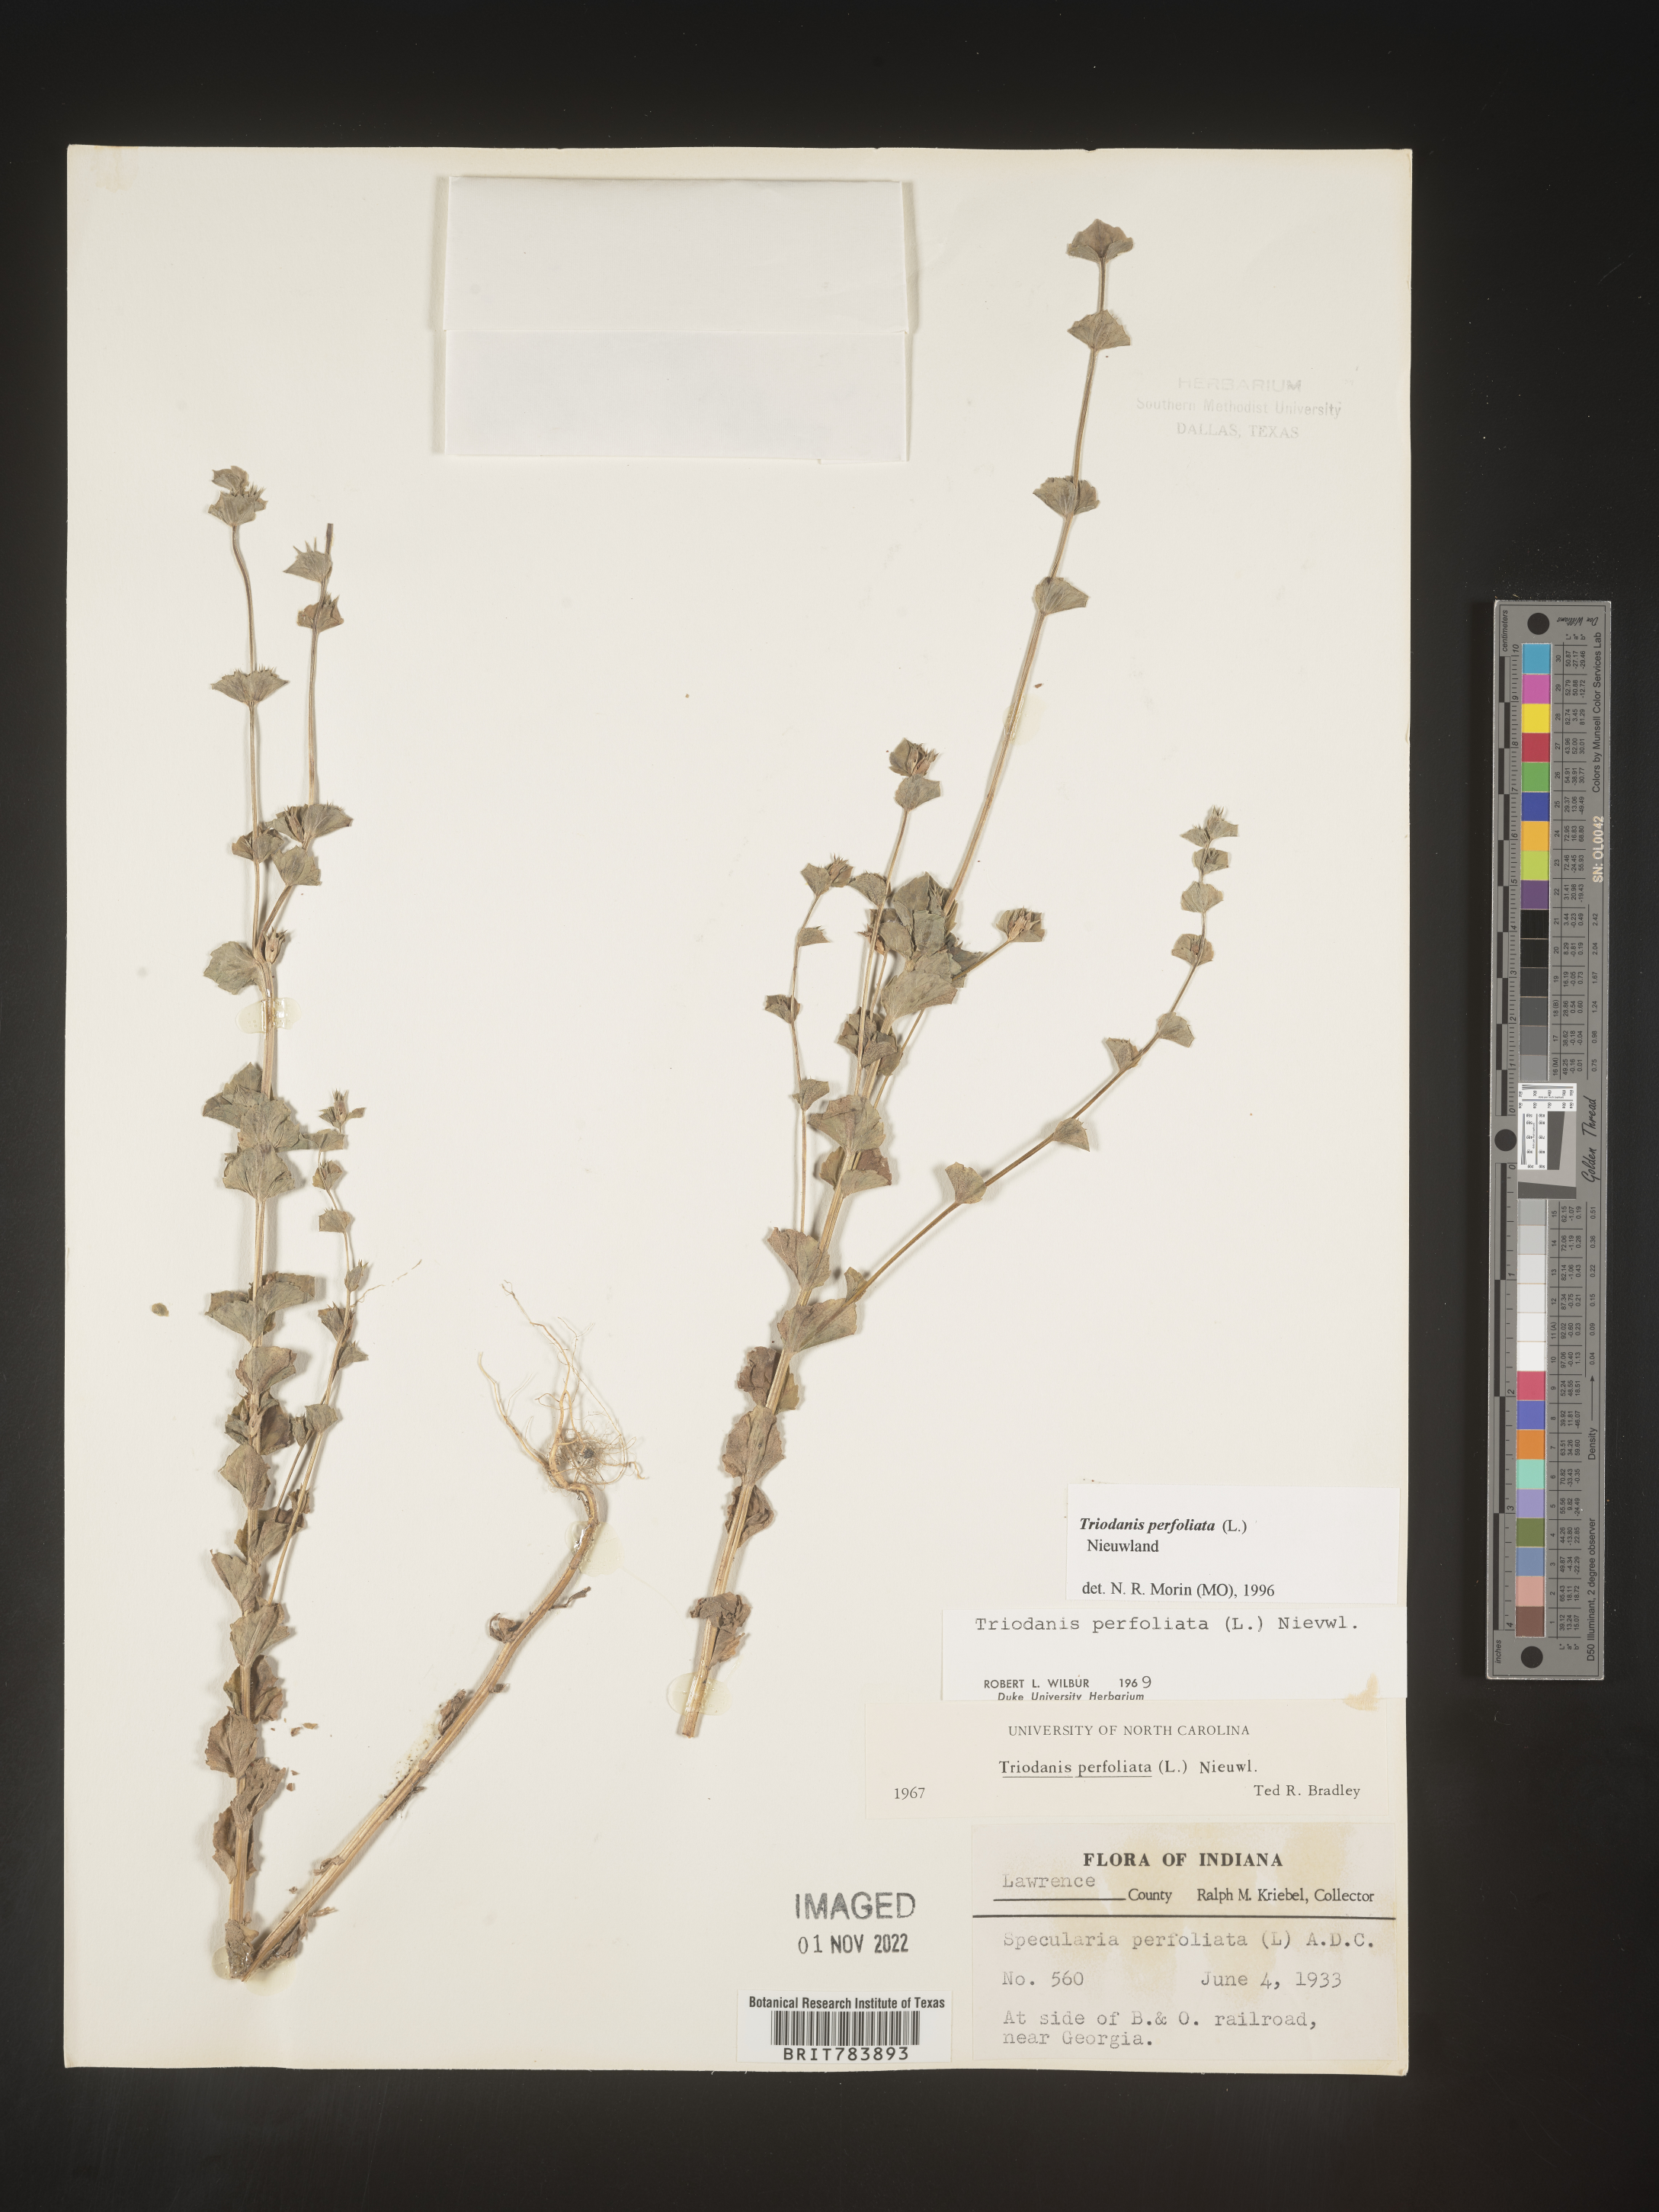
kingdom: Plantae
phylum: Tracheophyta
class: Magnoliopsida
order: Asterales
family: Campanulaceae
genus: Triodanis
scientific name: Triodanis perfoliata
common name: Clasping venus' looking-glass
